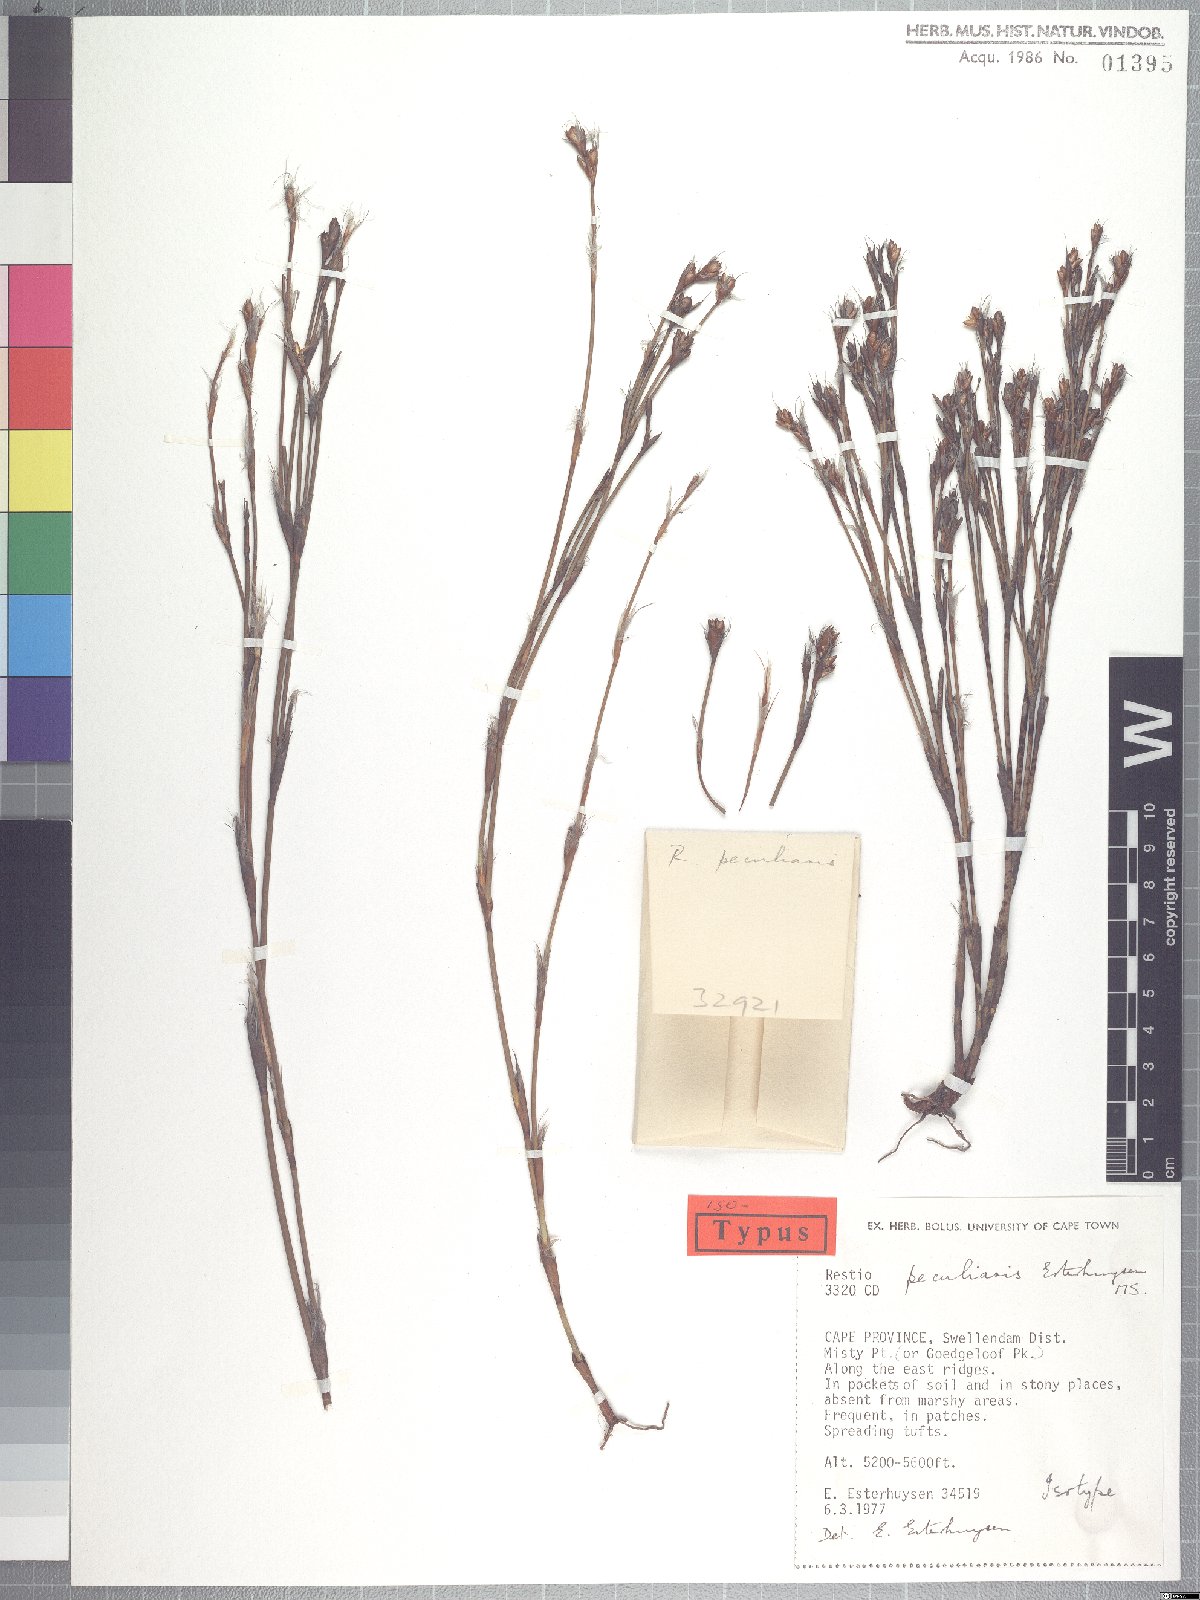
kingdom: Plantae
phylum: Tracheophyta
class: Liliopsida
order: Poales
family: Restionaceae
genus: Restio
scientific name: Restio peculiaris
